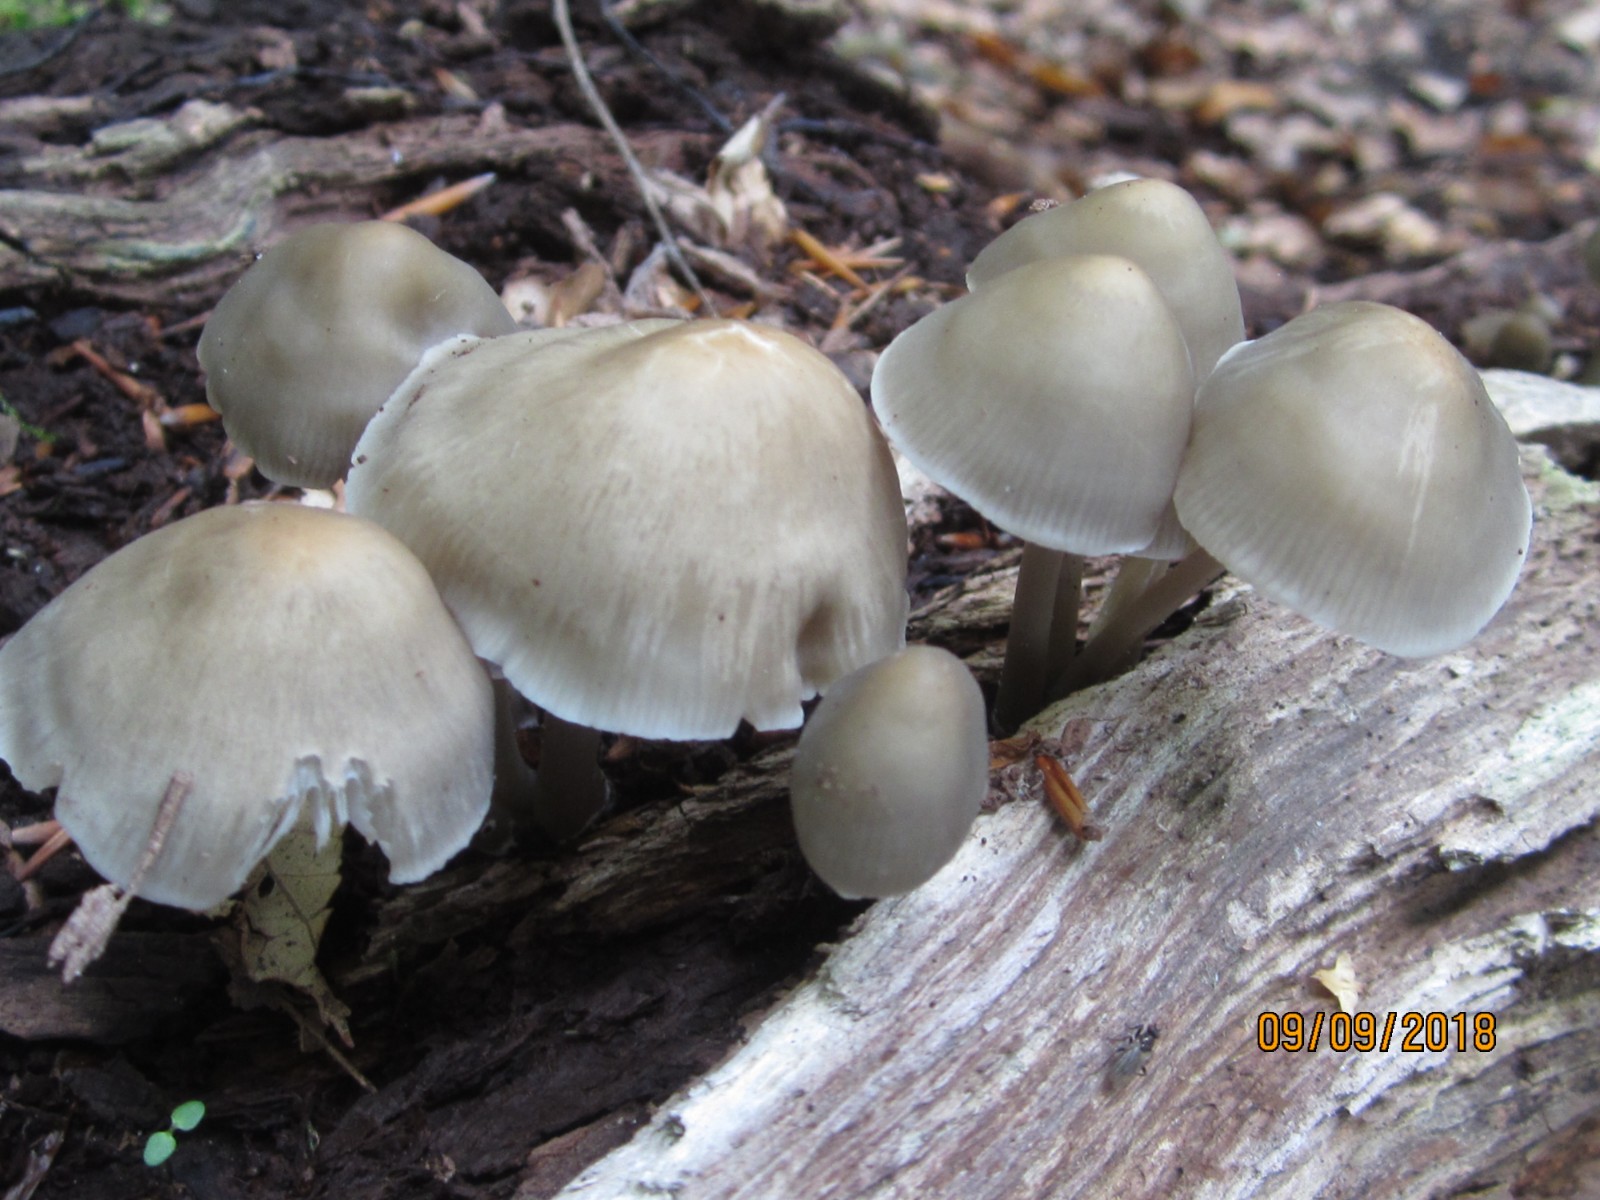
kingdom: Fungi
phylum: Basidiomycota
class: Agaricomycetes
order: Agaricales
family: Mycenaceae
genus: Mycena
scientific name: Mycena galericulata
